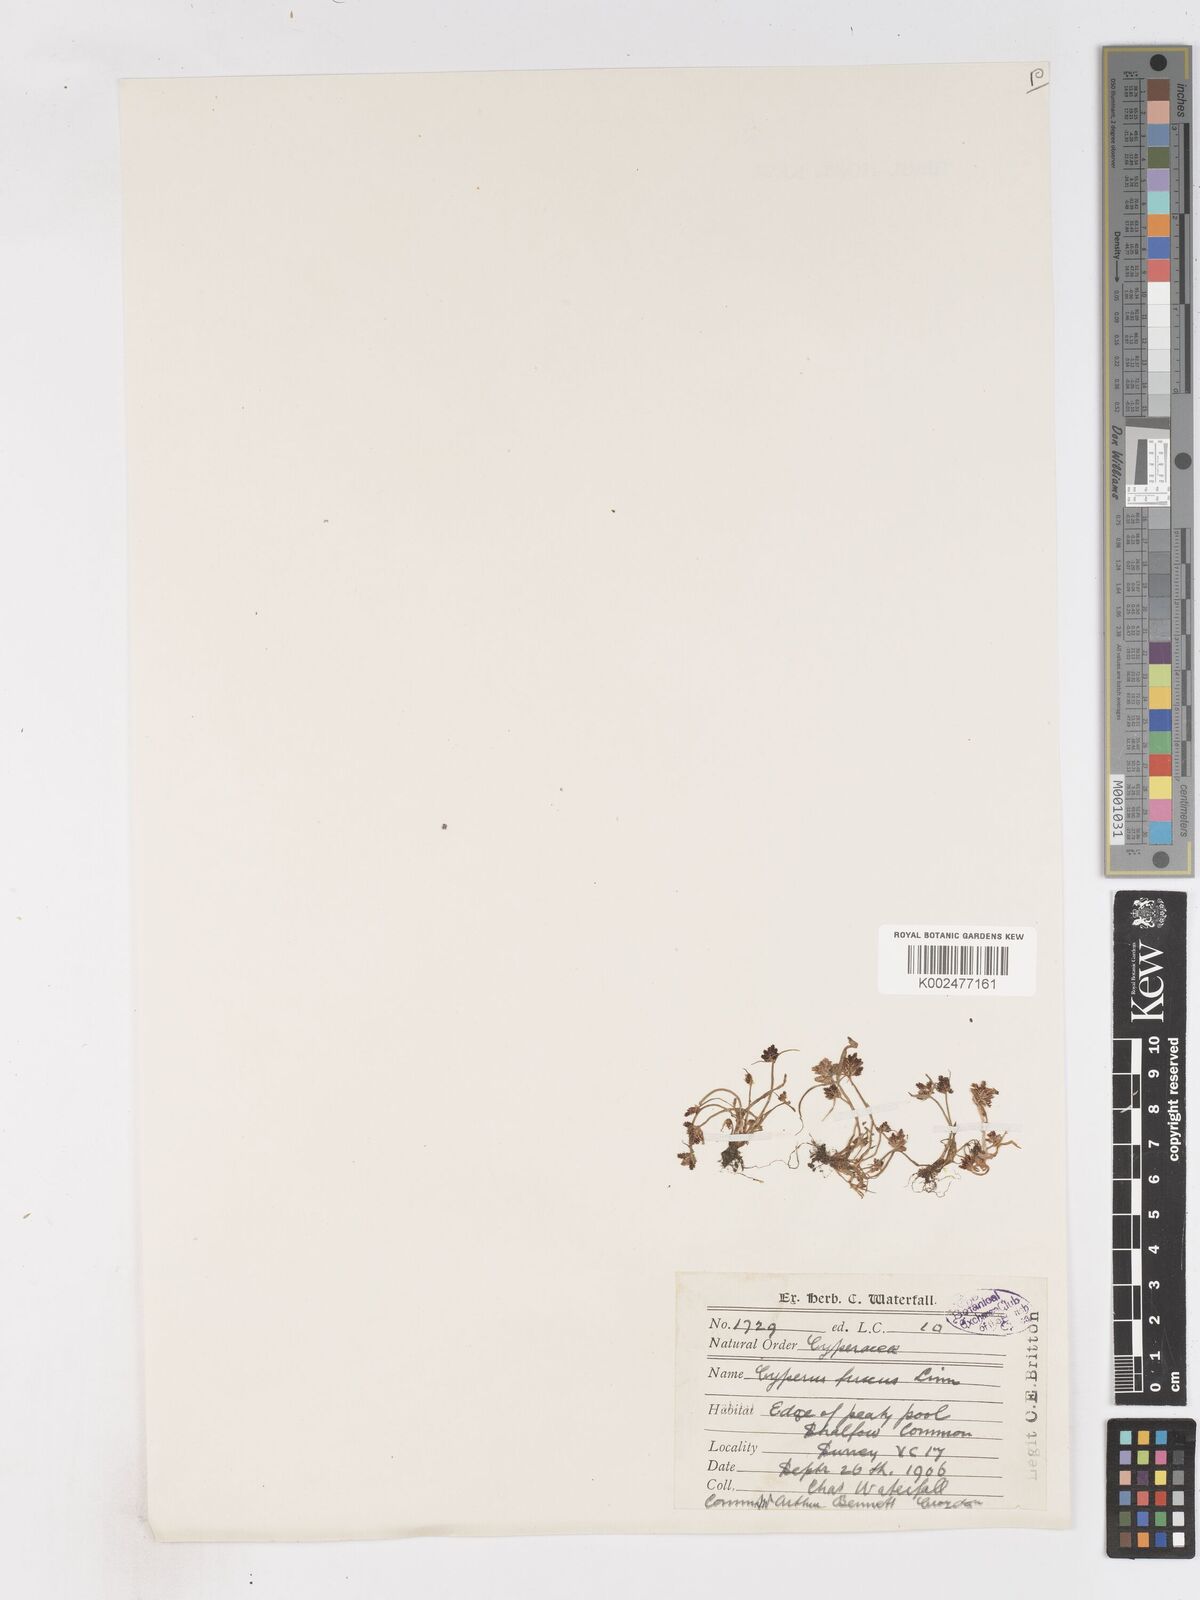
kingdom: Plantae
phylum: Tracheophyta
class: Liliopsida
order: Poales
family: Cyperaceae
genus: Cyperus
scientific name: Cyperus fuscus
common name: Brown galingale
